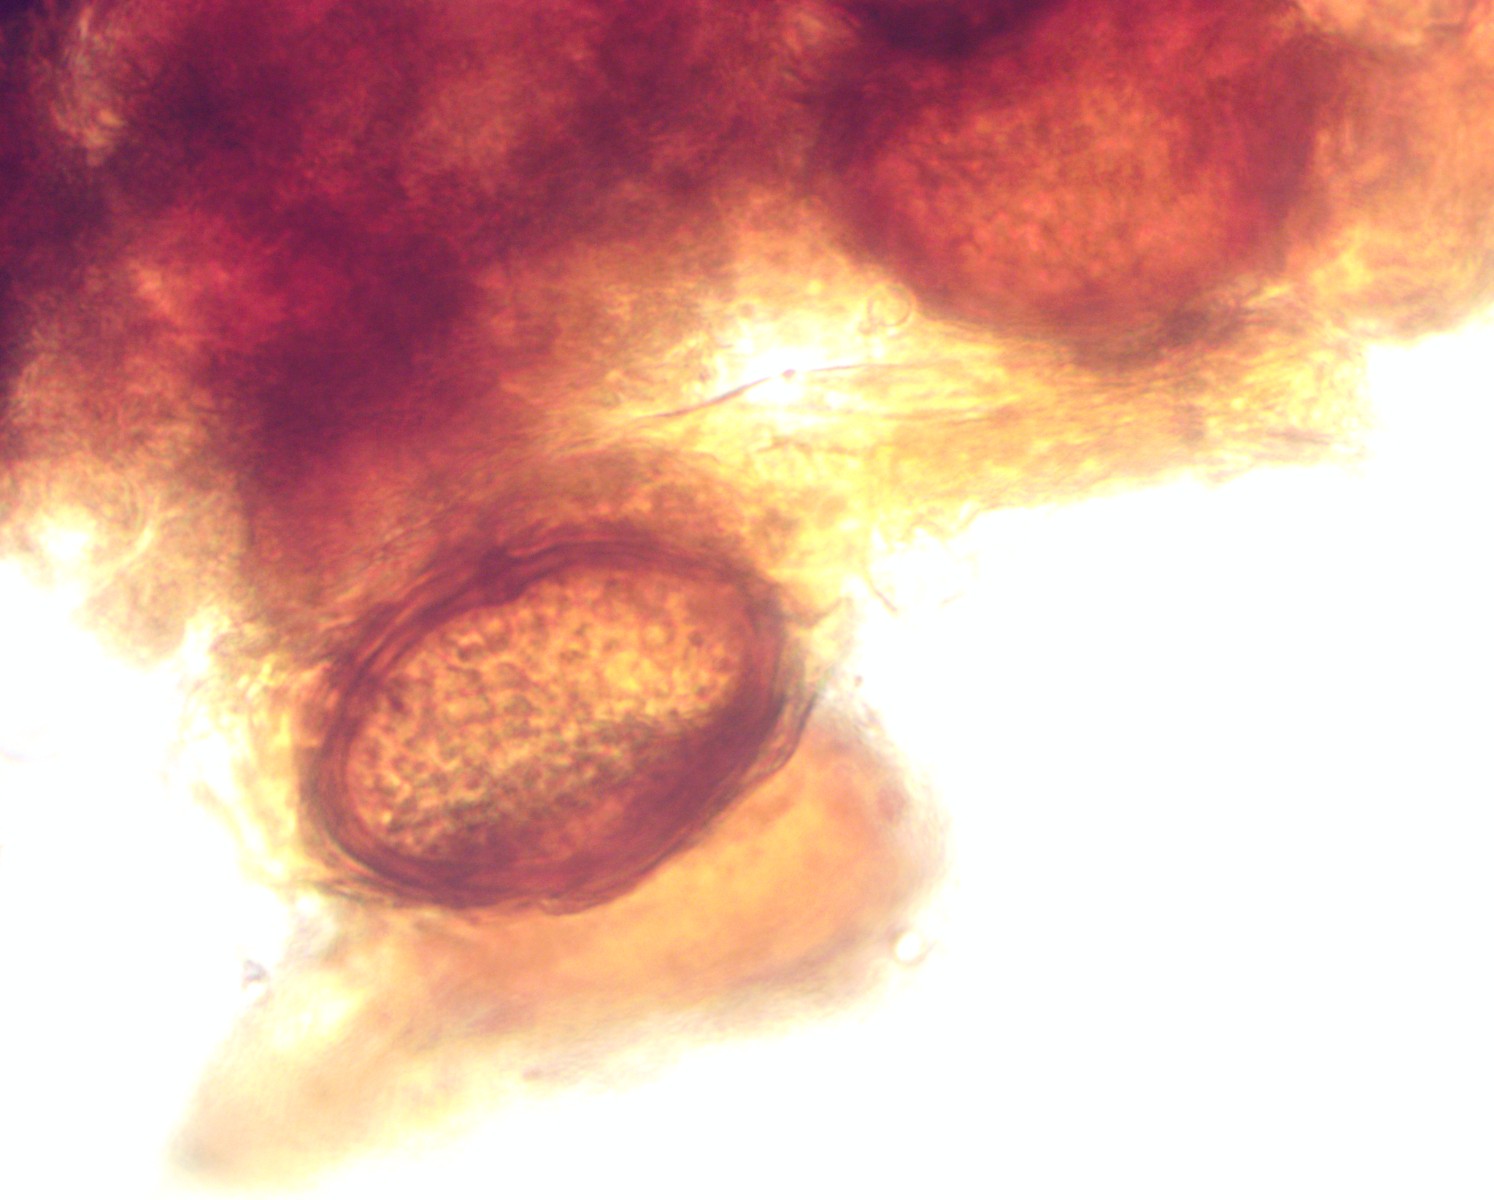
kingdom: Fungi
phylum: Basidiomycota
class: Wallemiomycetes
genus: Bartheletia
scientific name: Bartheletia paradoxa
